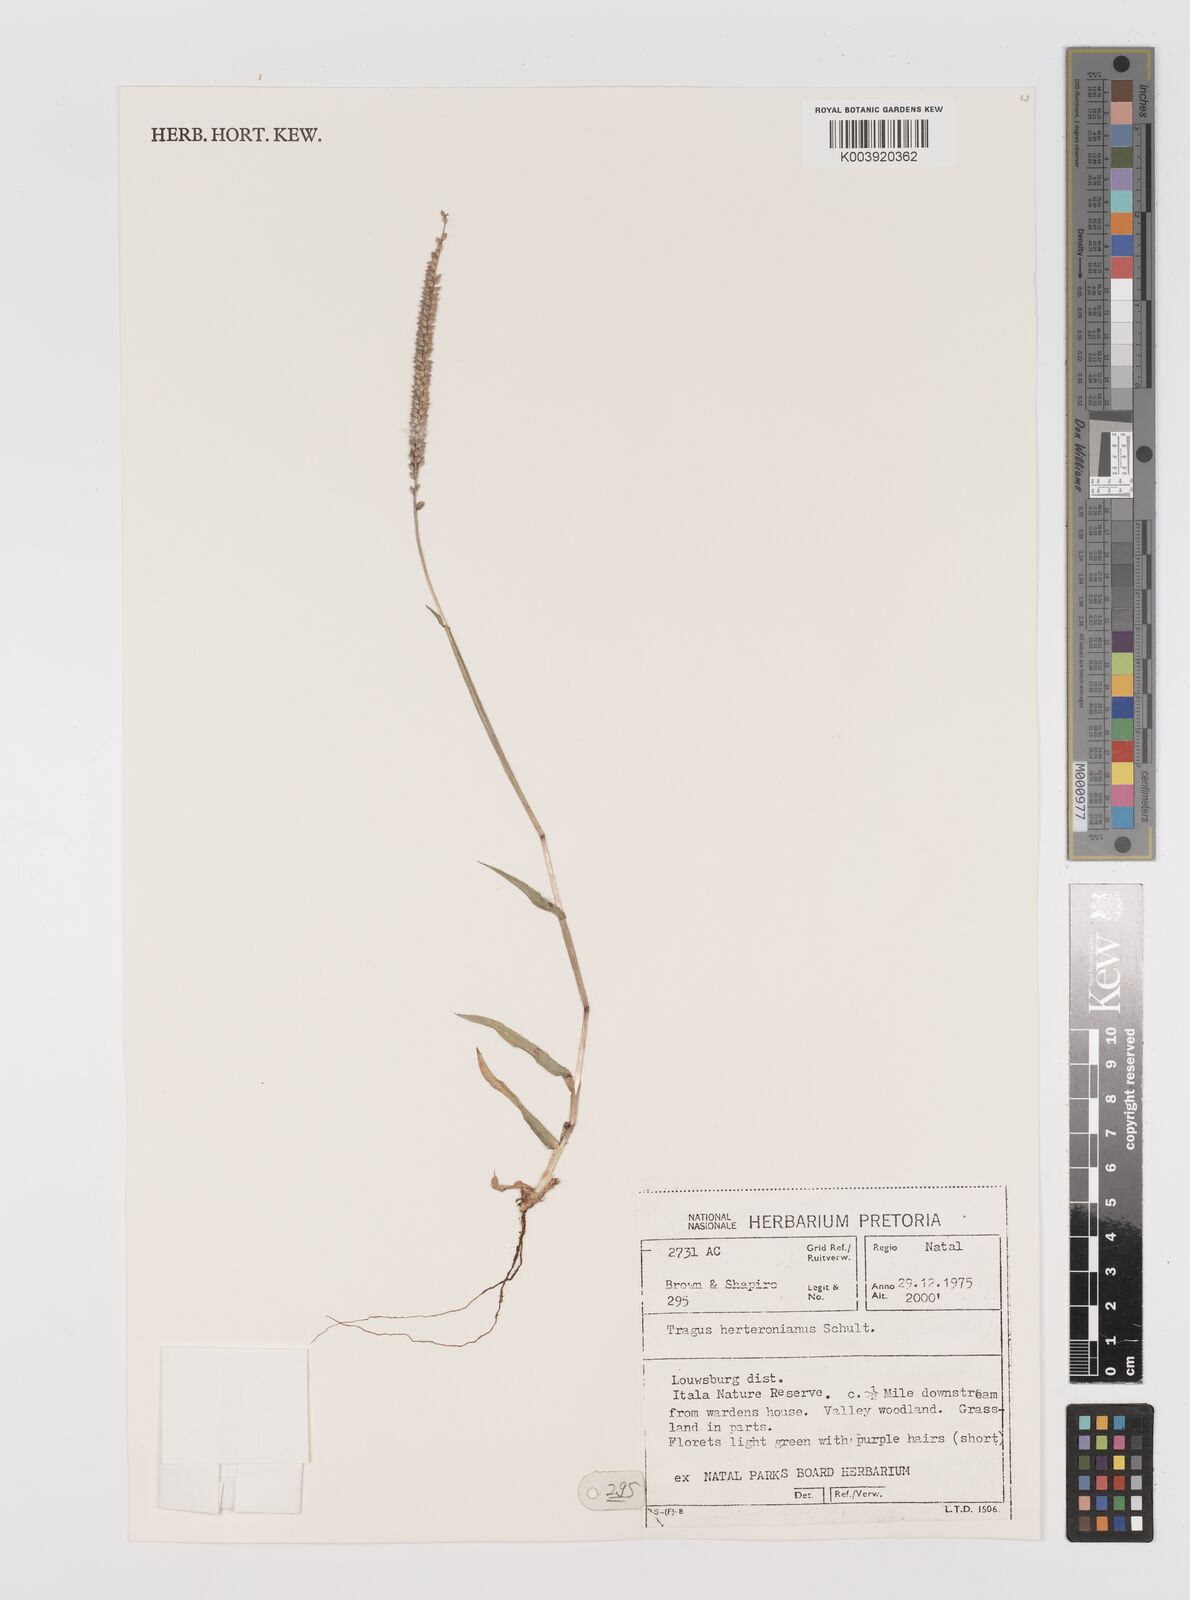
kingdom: Plantae
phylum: Tracheophyta
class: Liliopsida
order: Poales
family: Poaceae
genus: Tragus
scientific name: Tragus berteronianus
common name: African bur-grass
